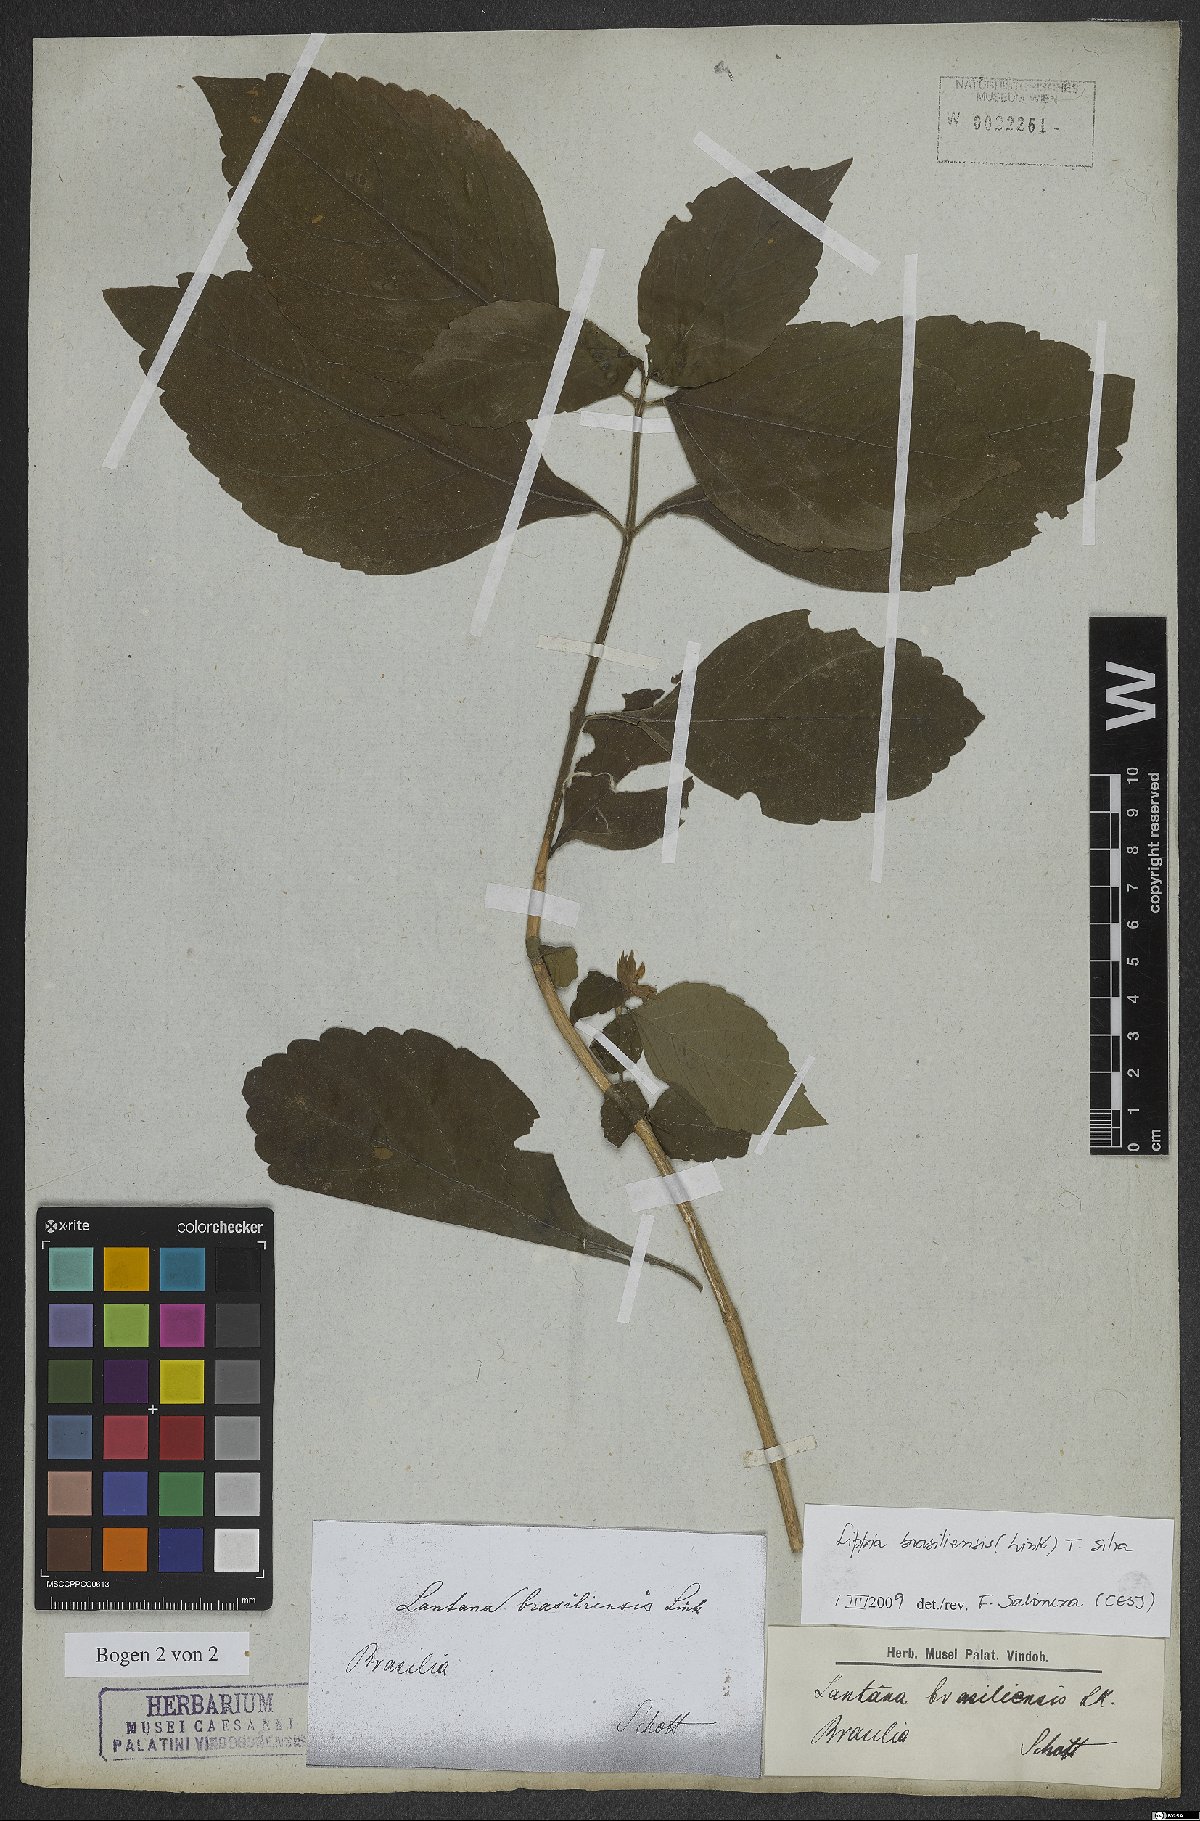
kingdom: Plantae
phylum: Tracheophyta
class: Magnoliopsida
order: Lamiales
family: Verbenaceae
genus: Lippia
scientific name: Lippia brasiliensis
